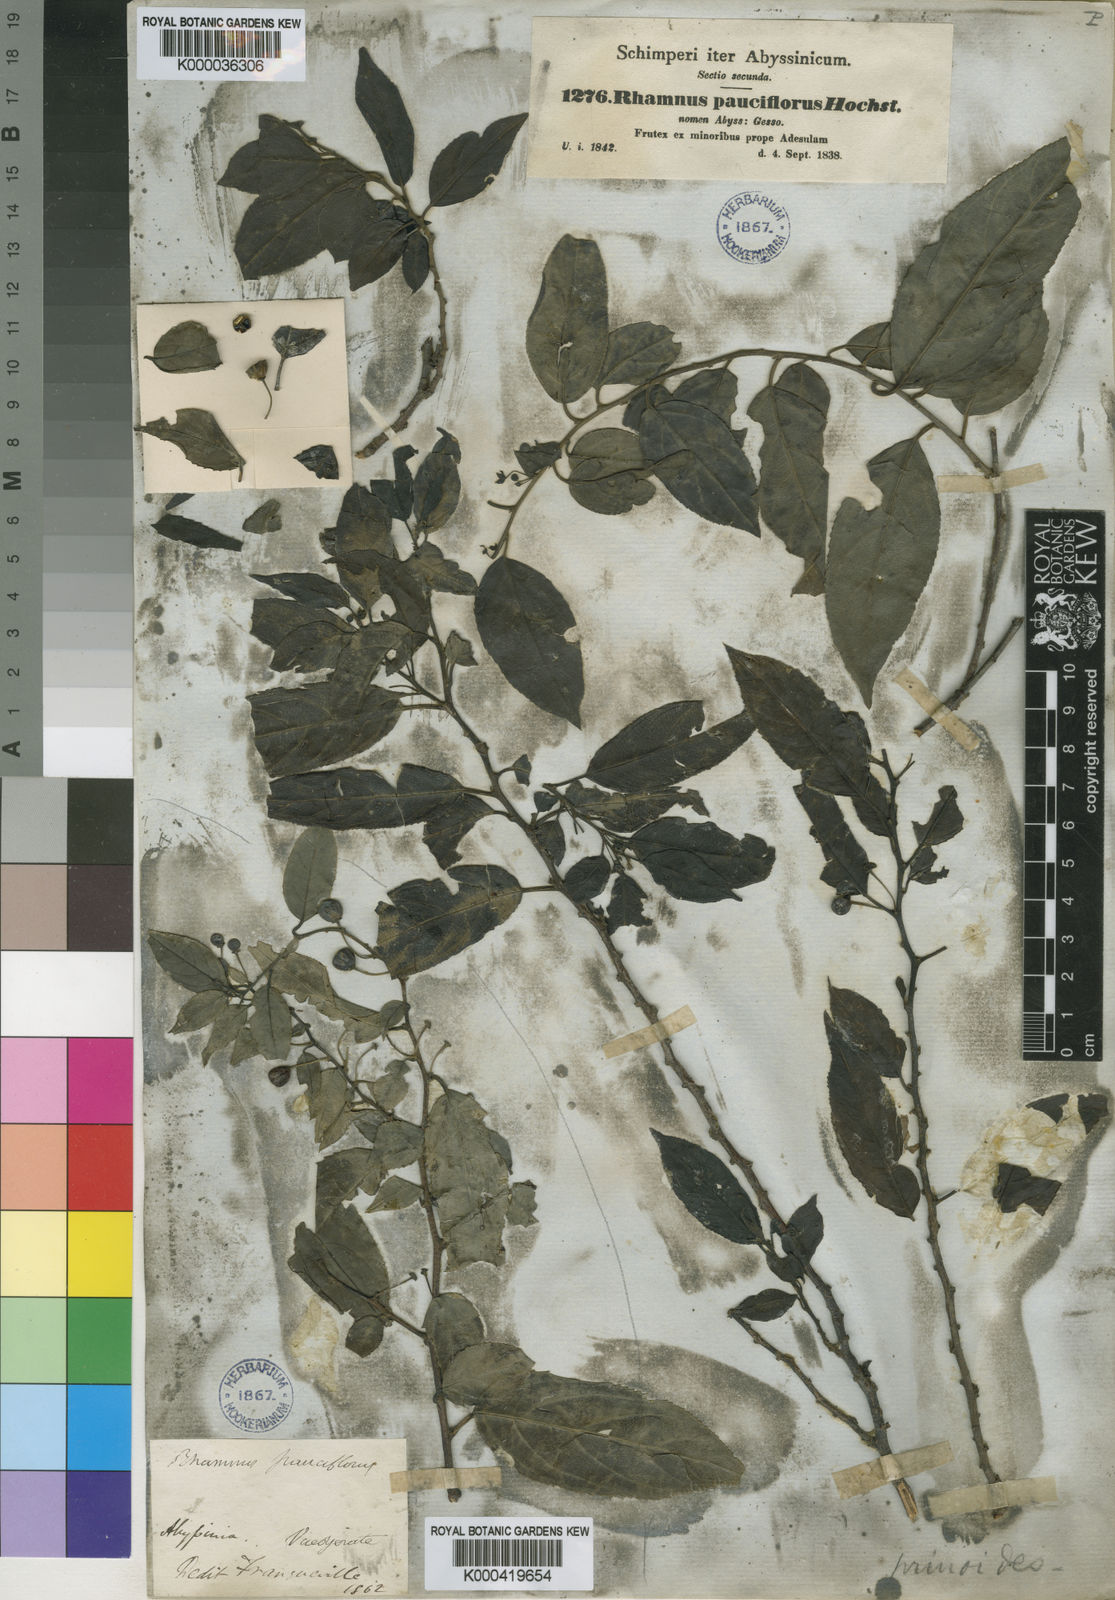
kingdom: Plantae
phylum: Tracheophyta
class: Magnoliopsida
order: Rosales
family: Rhamnaceae
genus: Rhamnus
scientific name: Rhamnus
